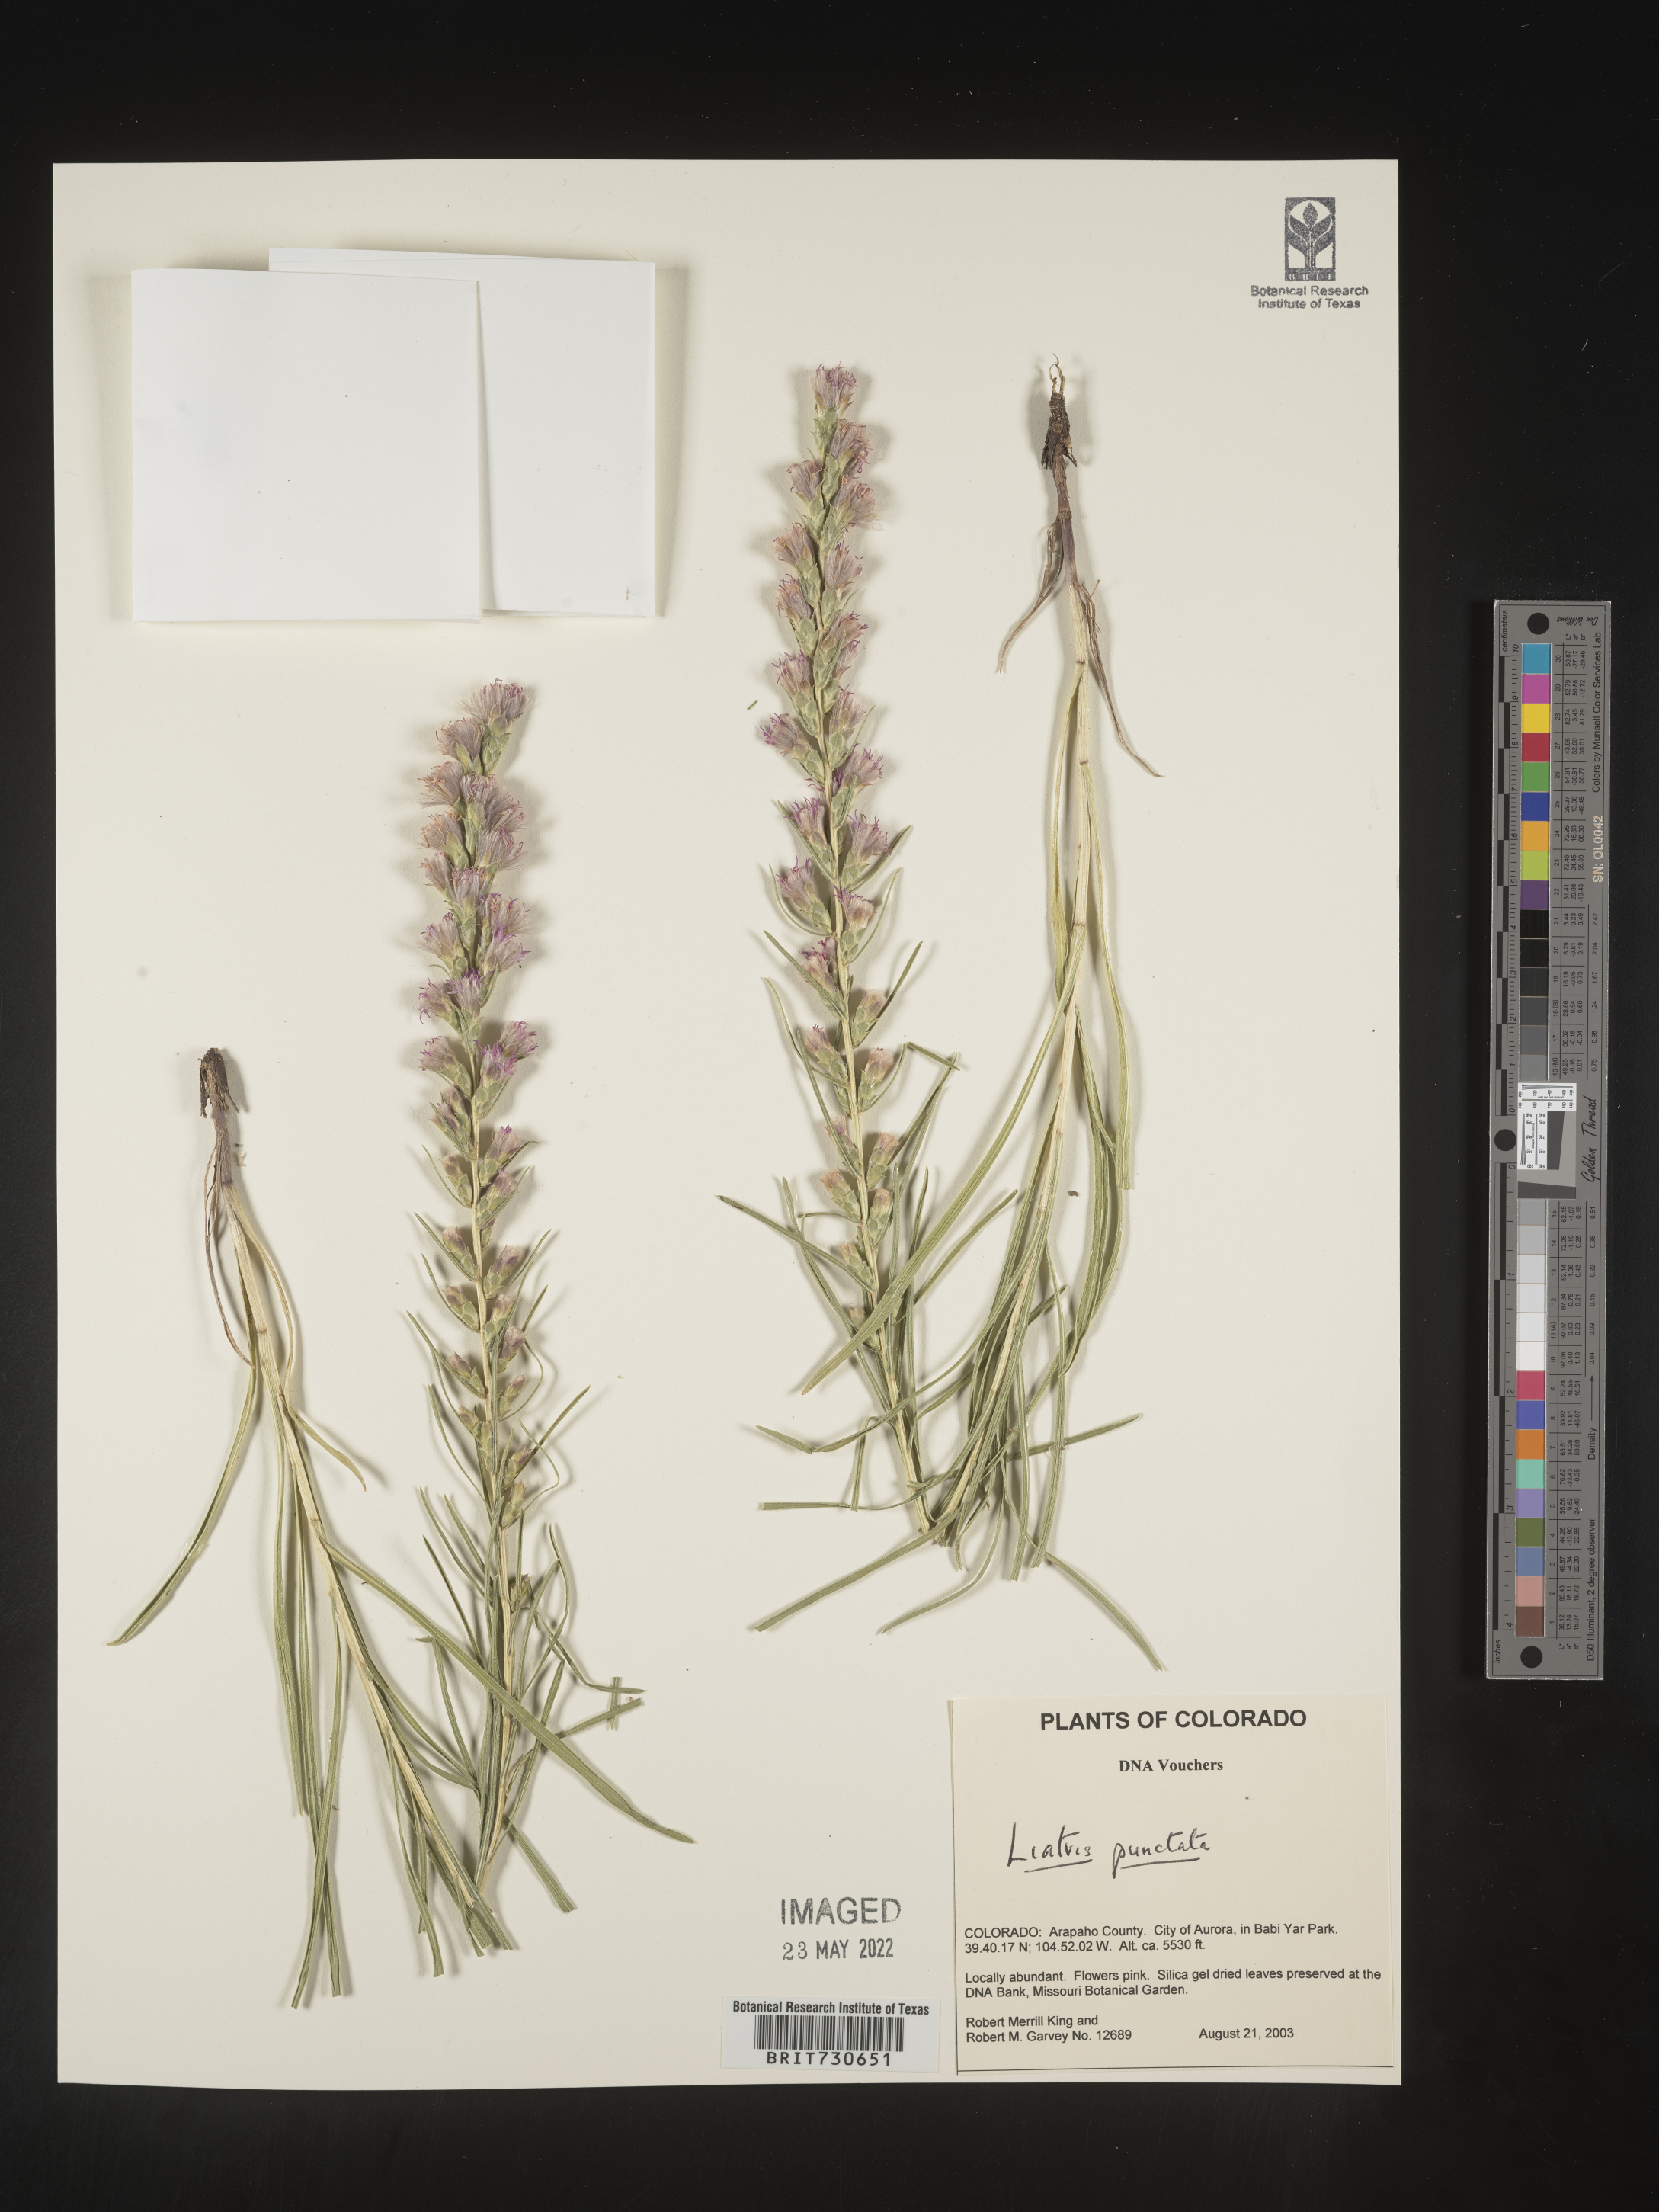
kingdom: Plantae
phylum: Tracheophyta
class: Magnoliopsida
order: Asterales
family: Asteraceae
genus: Liatris
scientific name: Liatris punctata
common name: Dotted gayfeather
